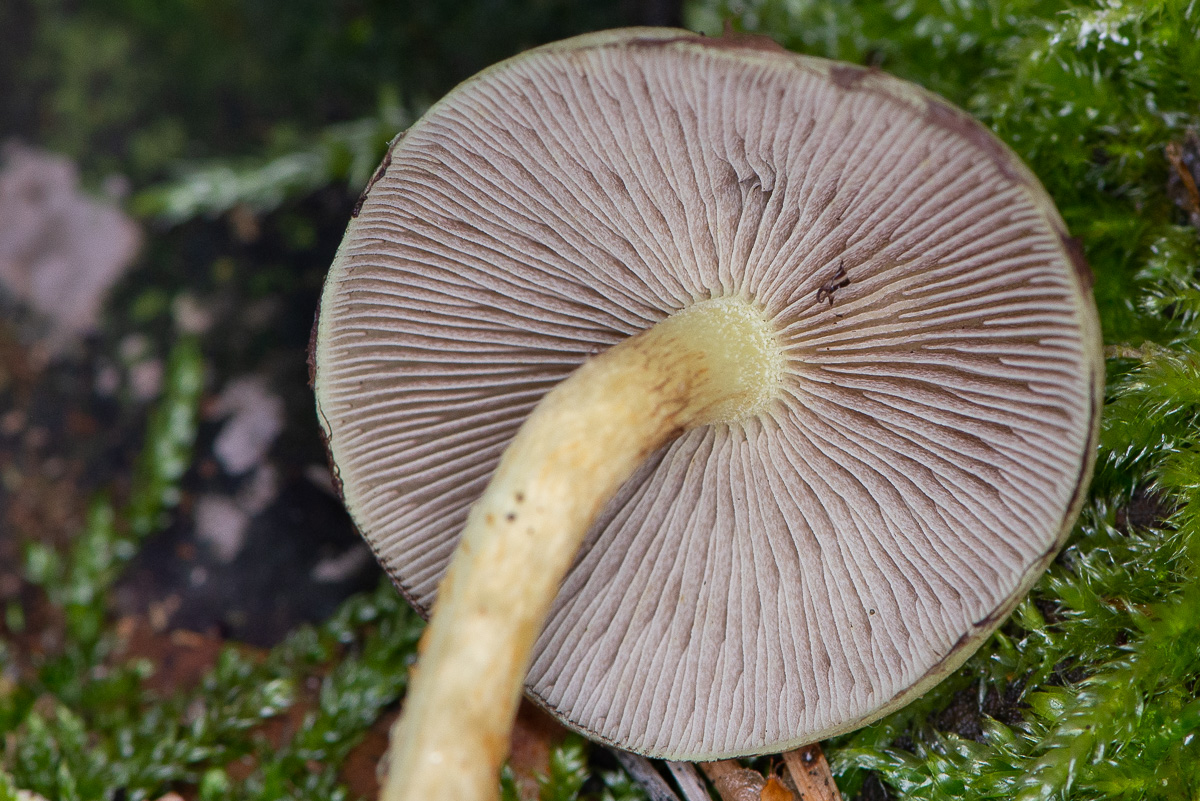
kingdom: Fungi
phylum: Basidiomycota
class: Agaricomycetes
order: Agaricales
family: Strophariaceae
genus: Hypholoma
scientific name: Hypholoma fasciculare
